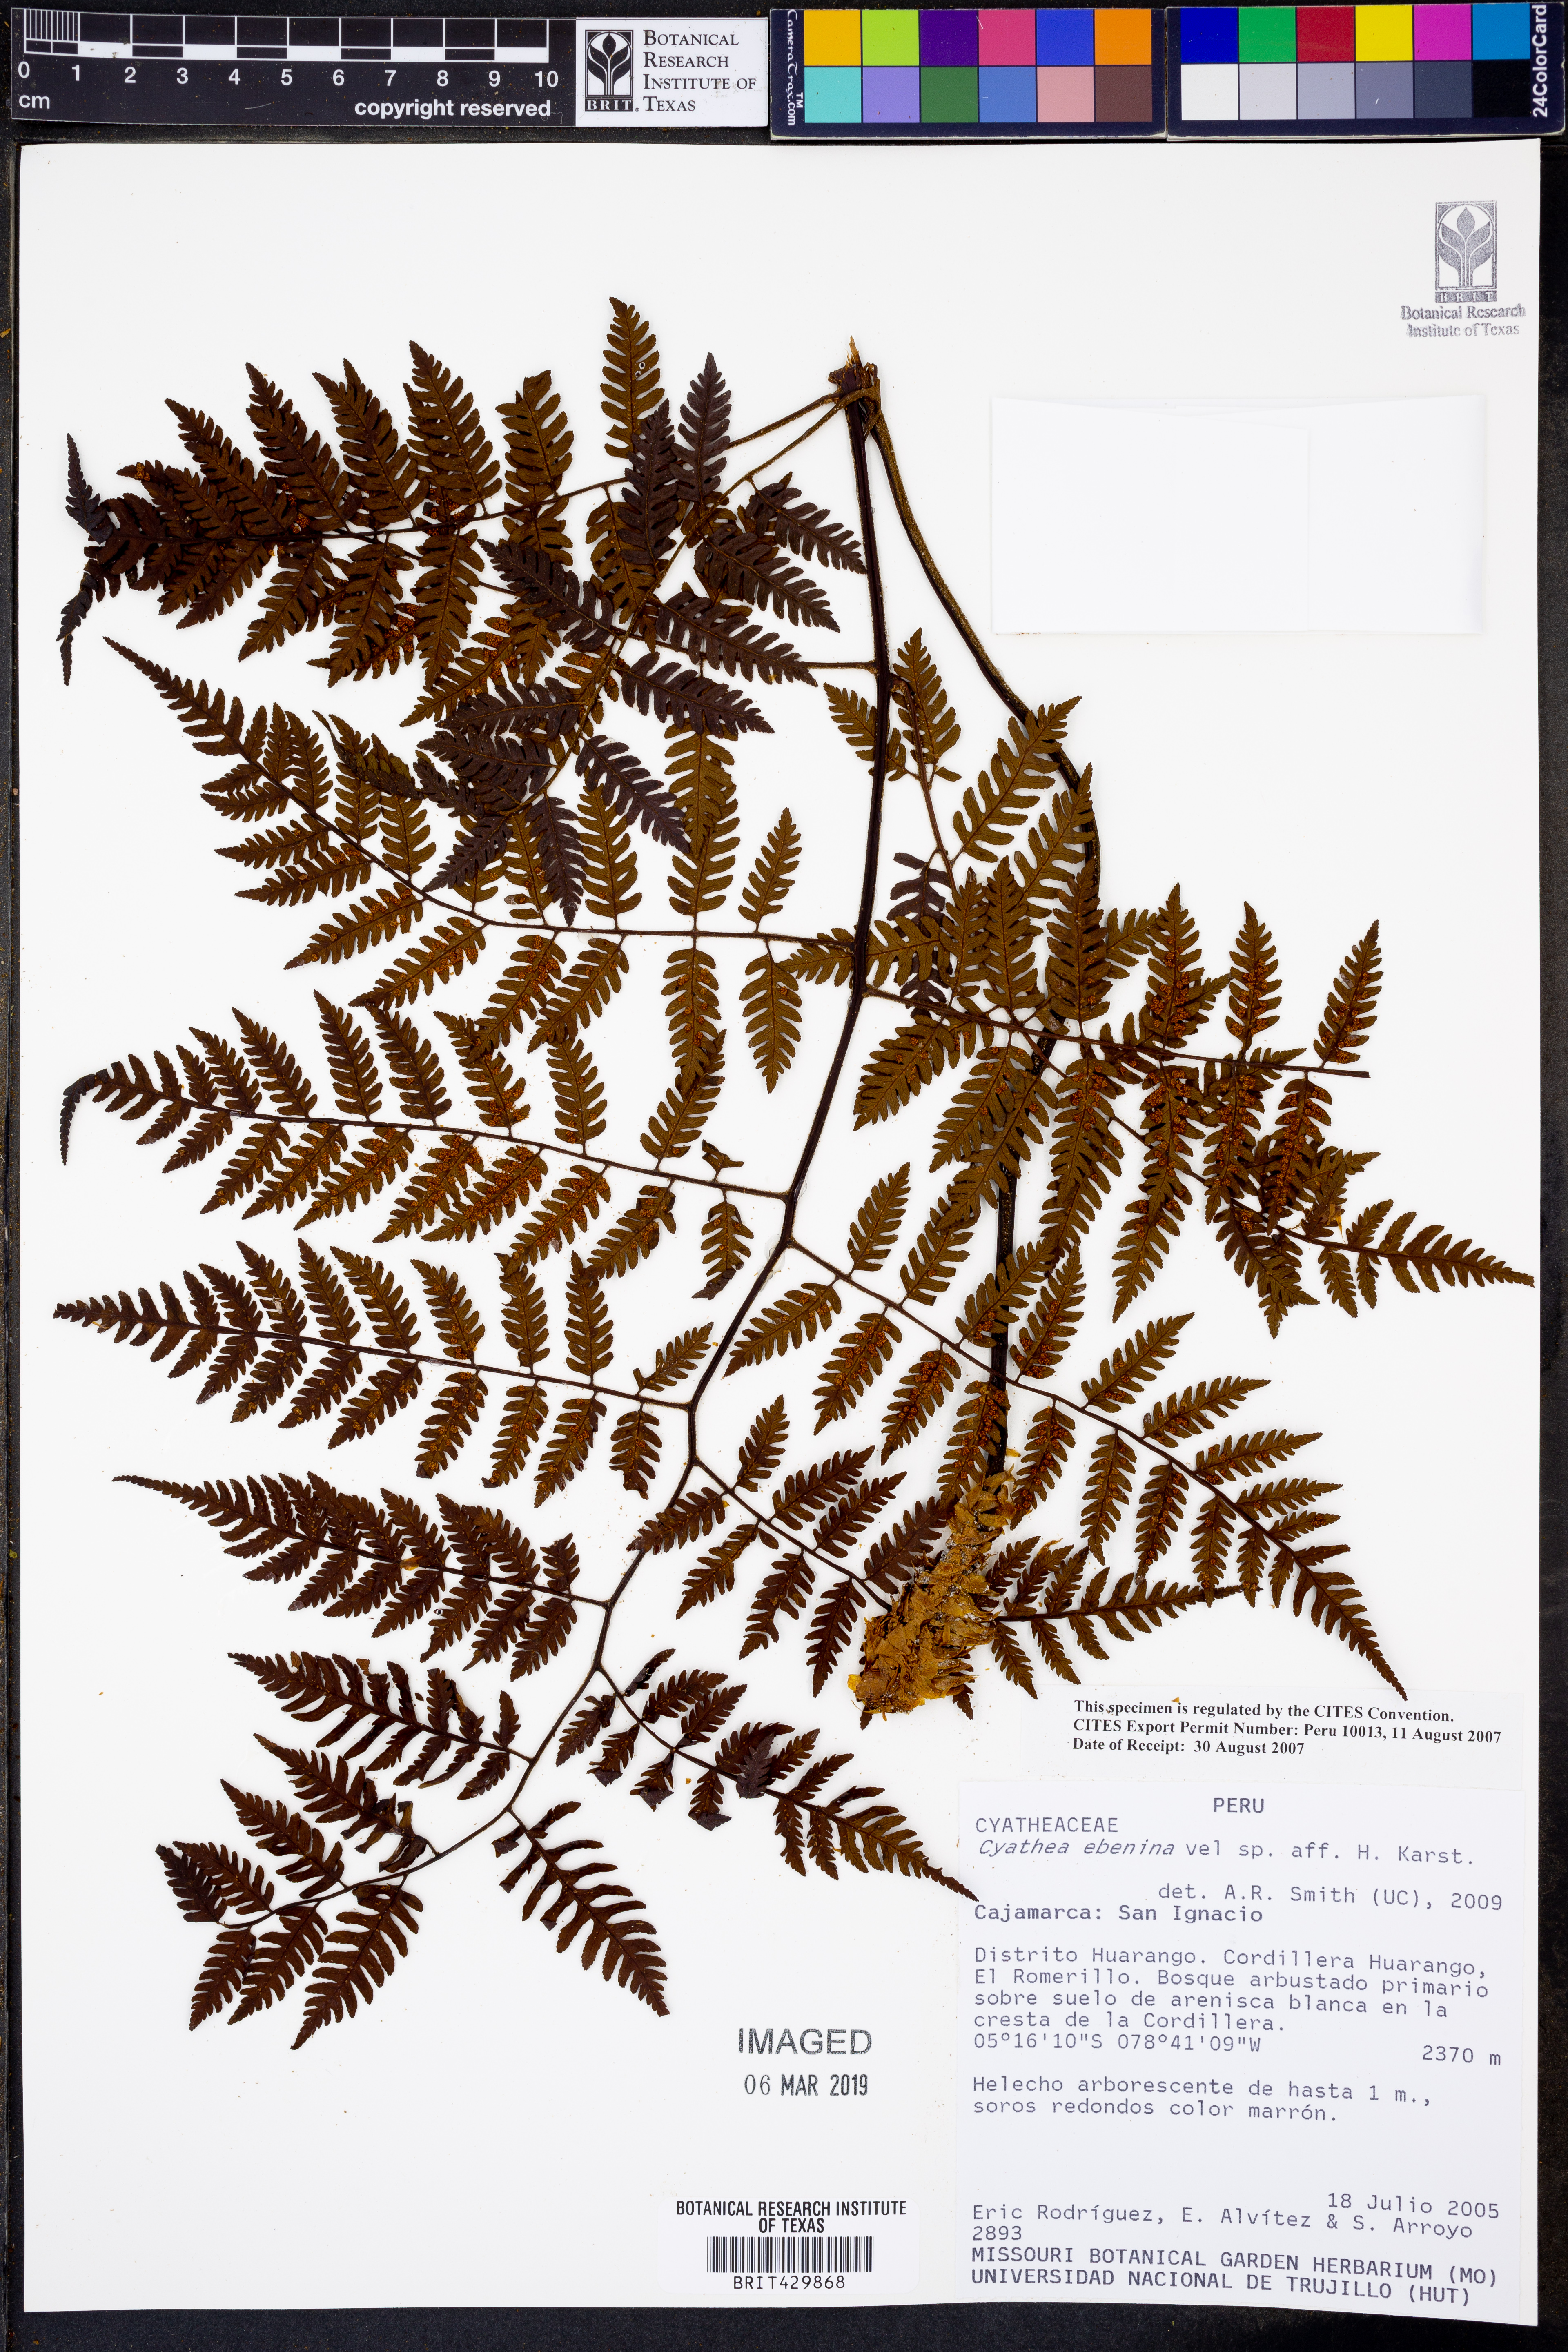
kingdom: Plantae
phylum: Tracheophyta
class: Polypodiopsida
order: Cyatheales
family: Cyatheaceae
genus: Cyathea
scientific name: Cyathea ebenina
